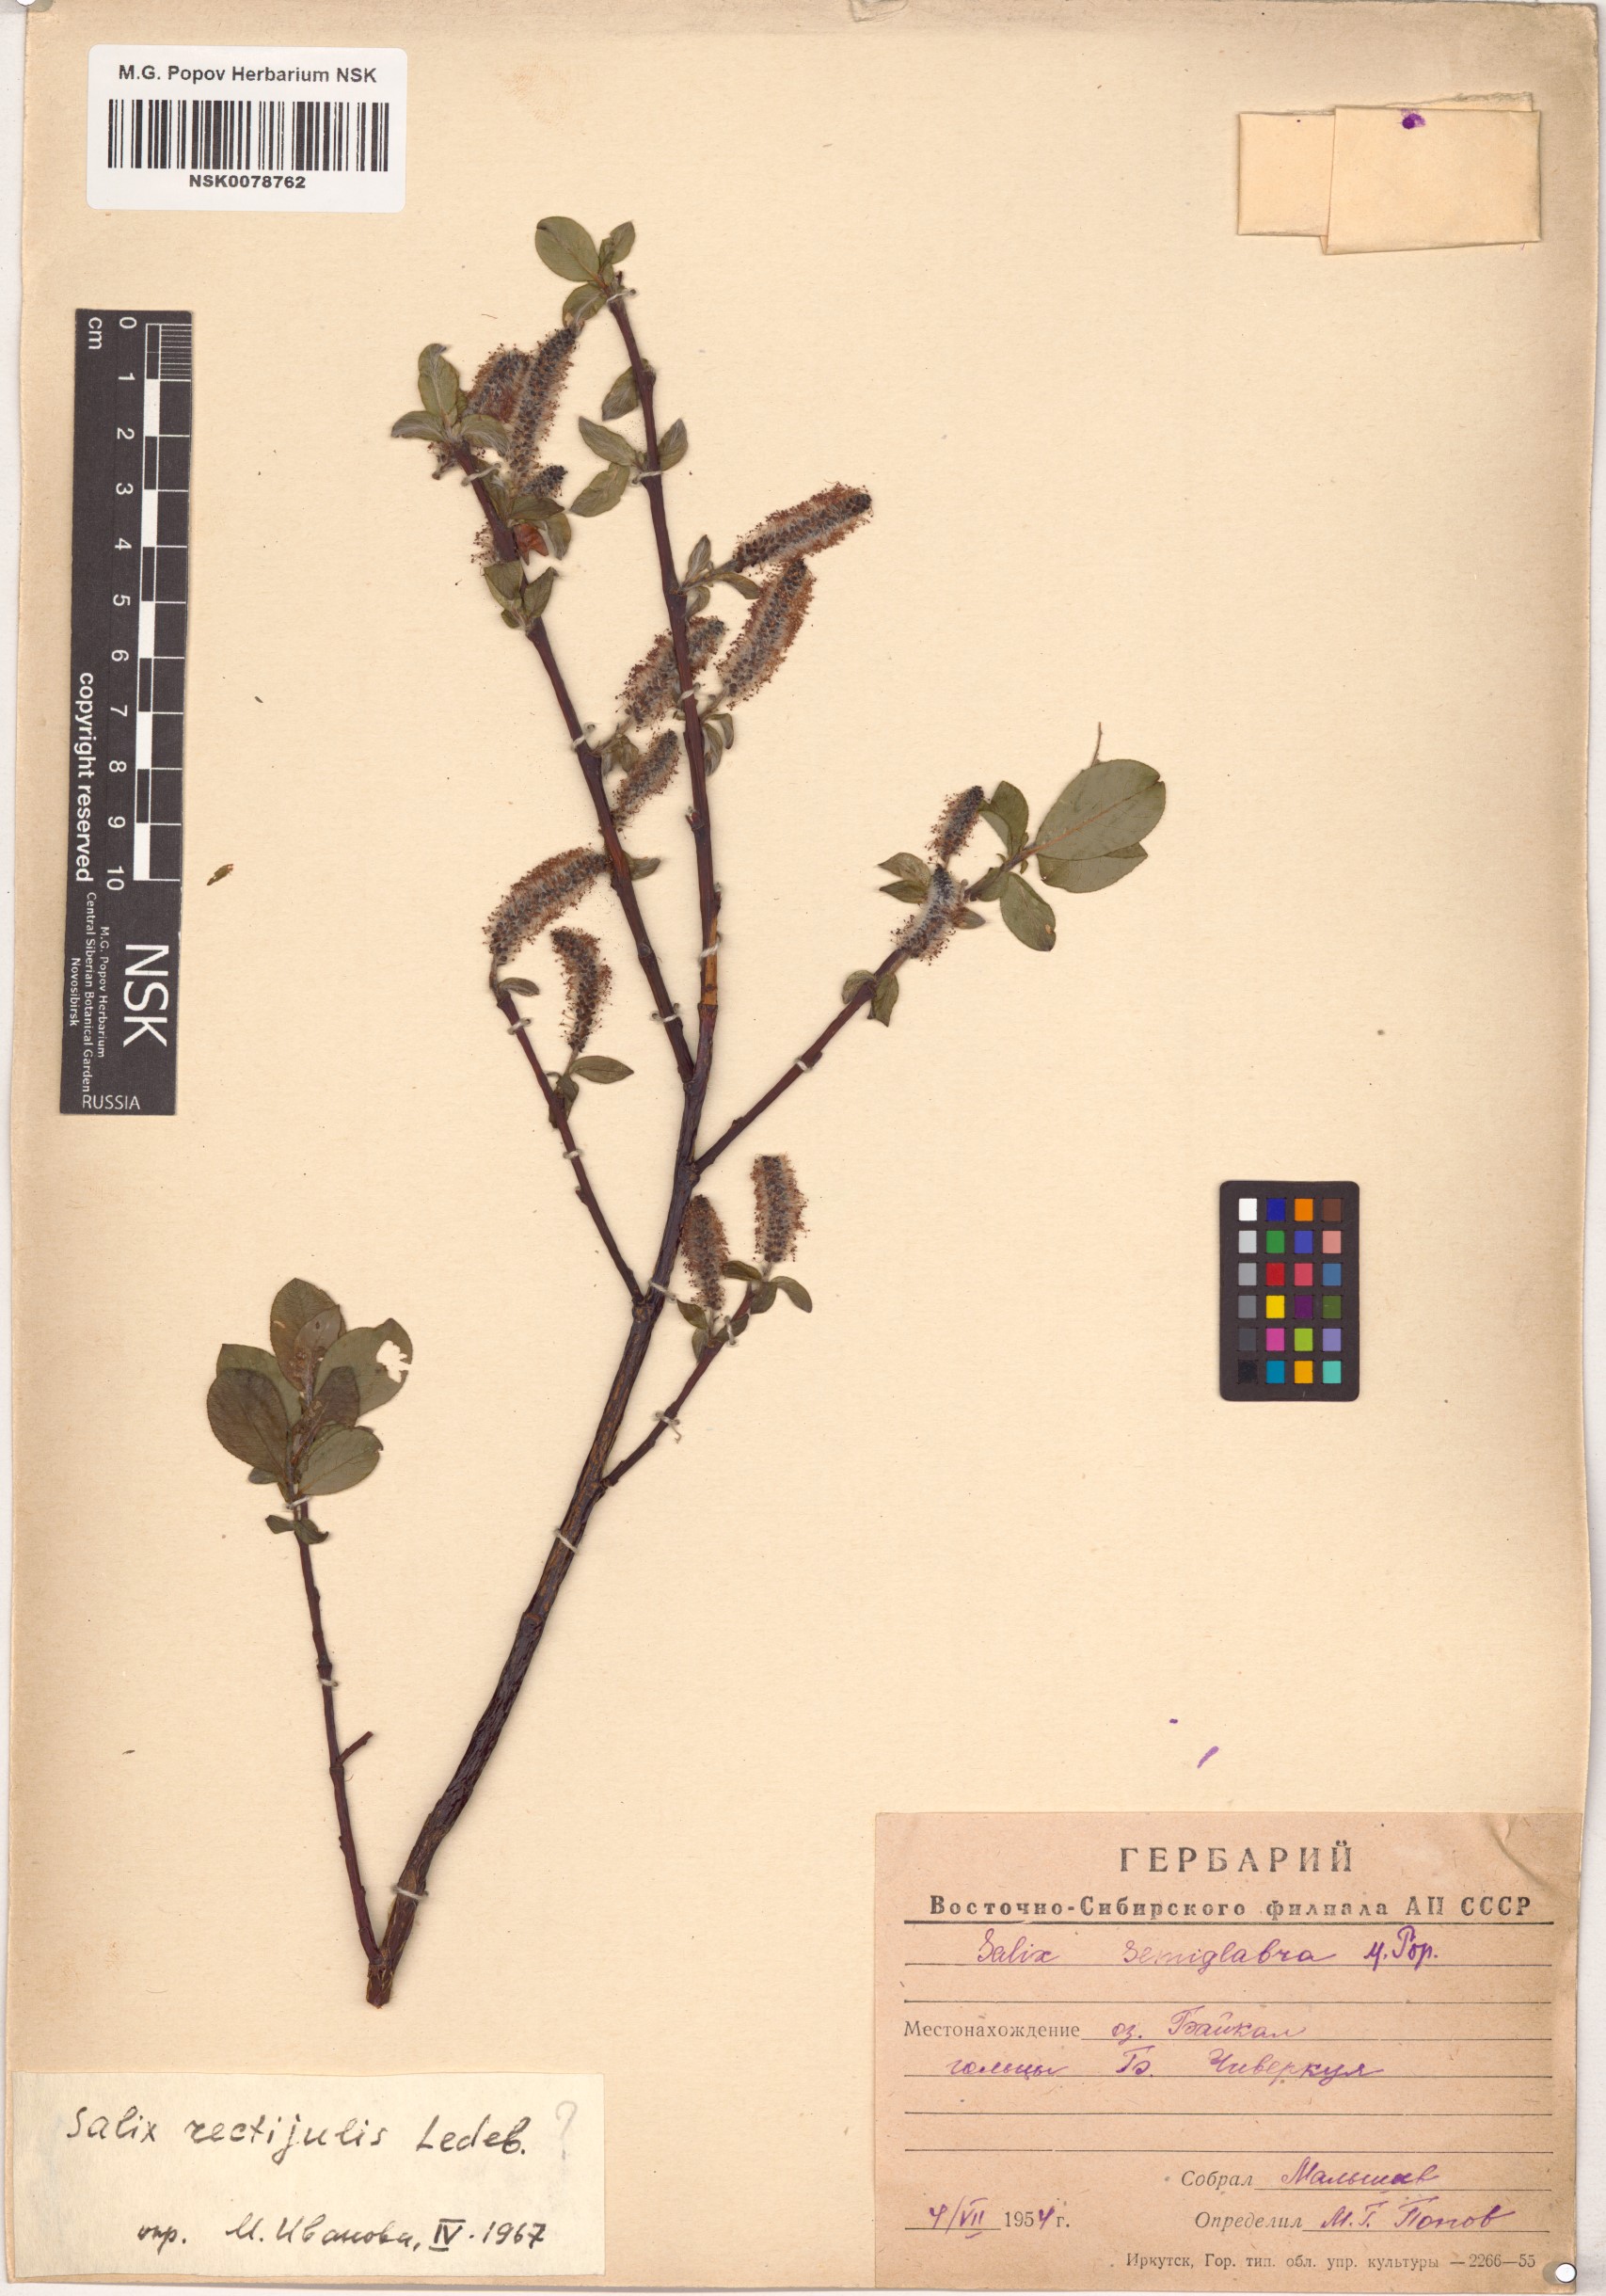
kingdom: Plantae
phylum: Tracheophyta
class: Magnoliopsida
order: Malpighiales
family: Salicaceae
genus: Salix
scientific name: Salix rectijulis
